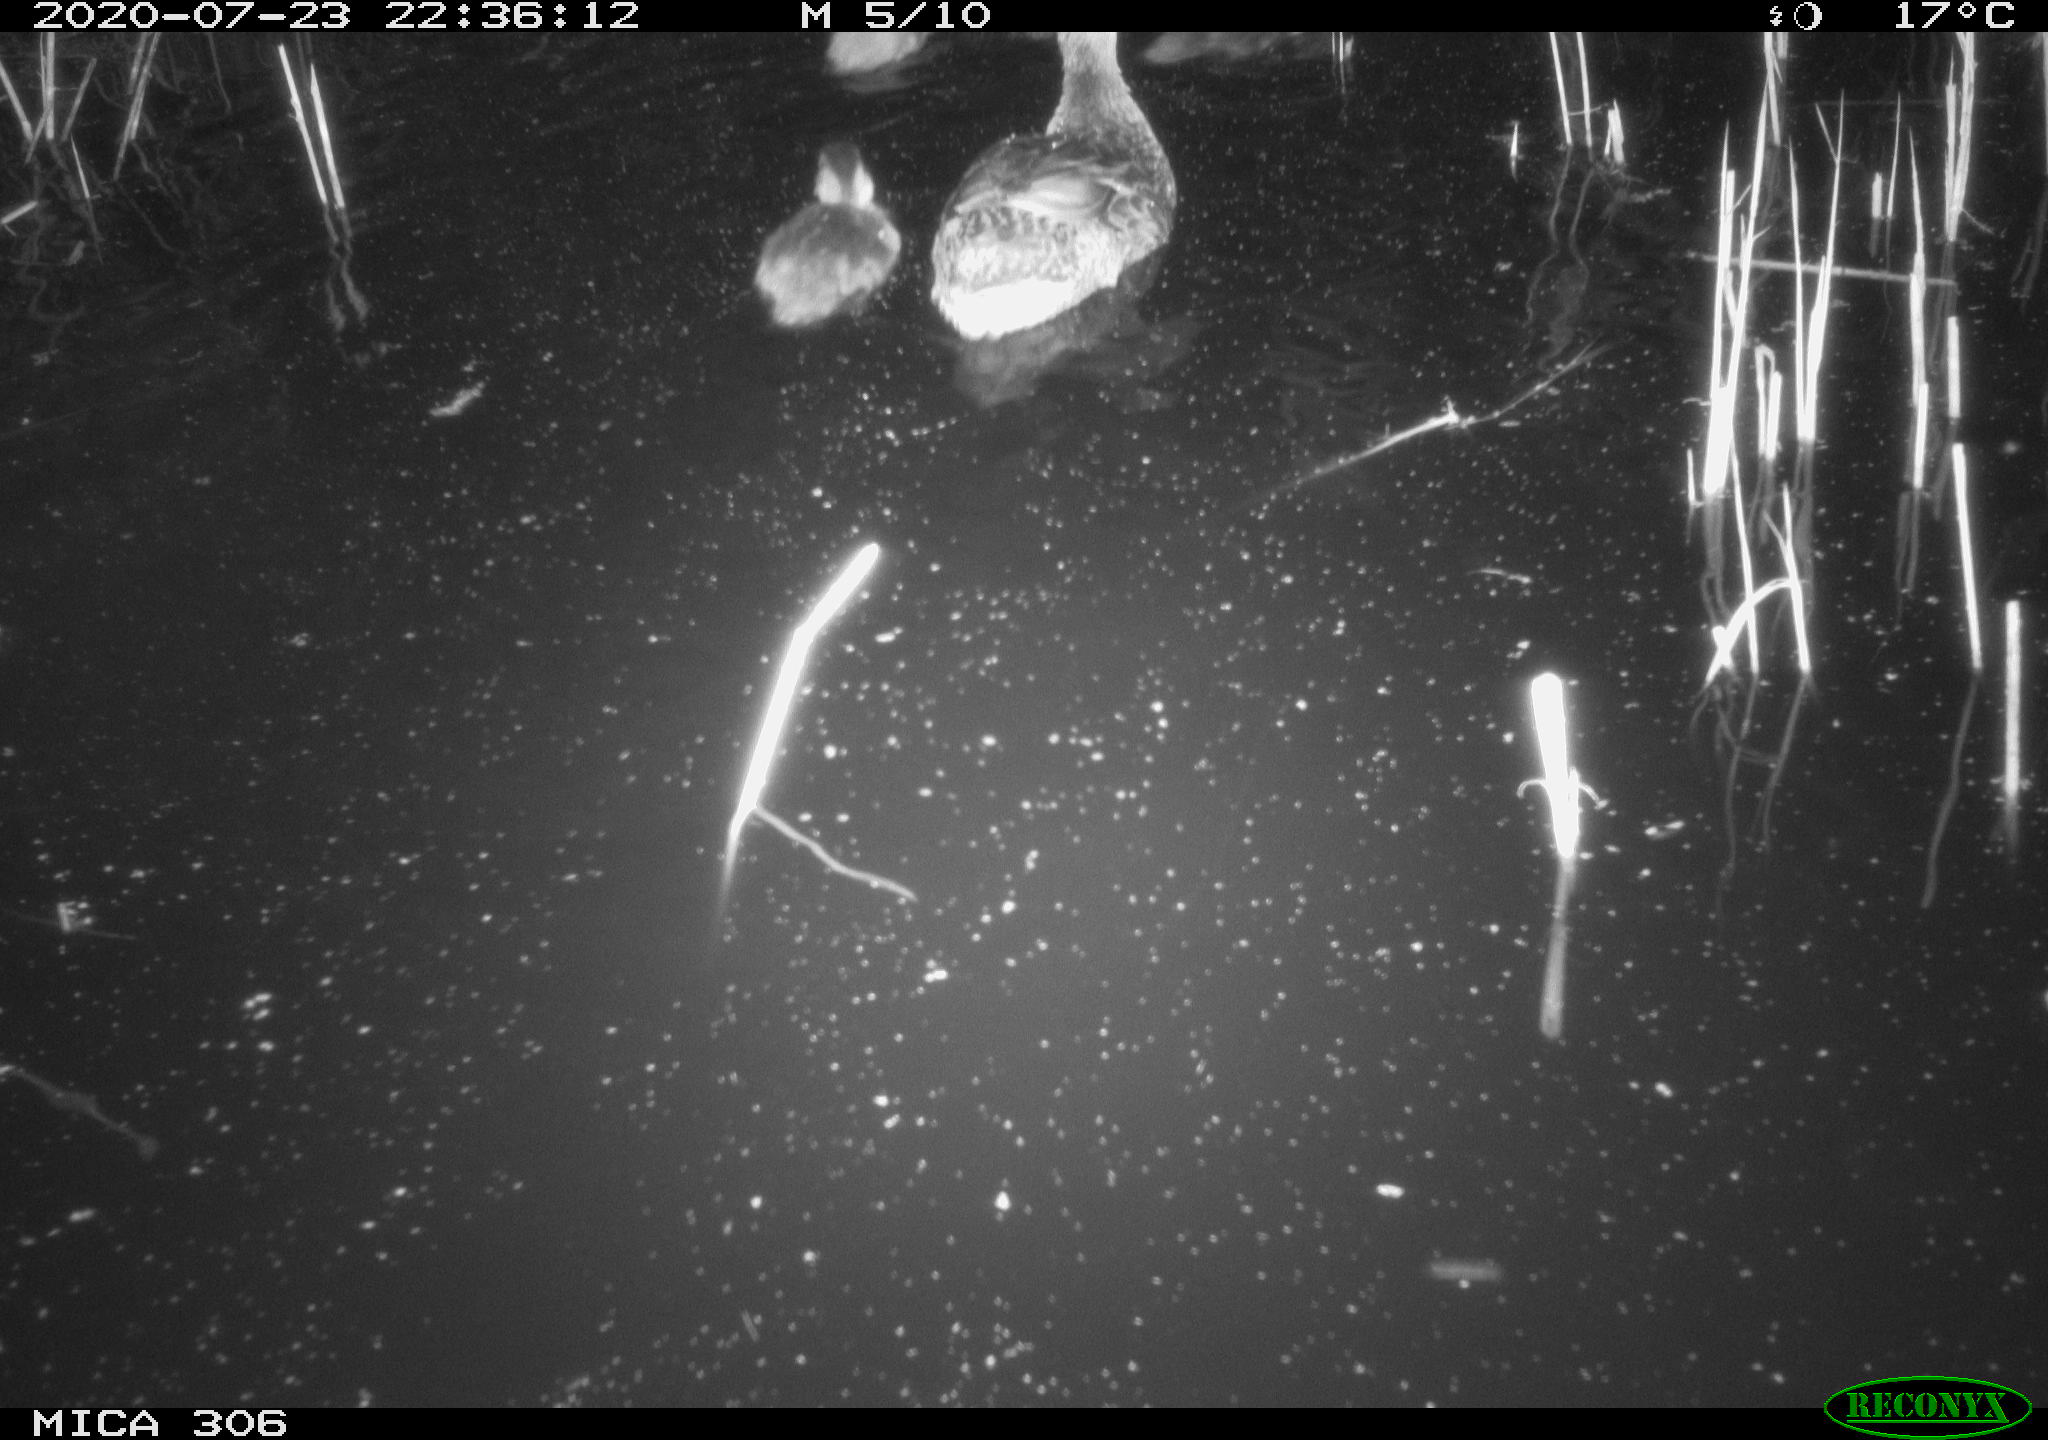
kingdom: Animalia
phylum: Chordata
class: Aves
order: Anseriformes
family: Anatidae
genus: Anas
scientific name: Anas platyrhynchos
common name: Mallard
